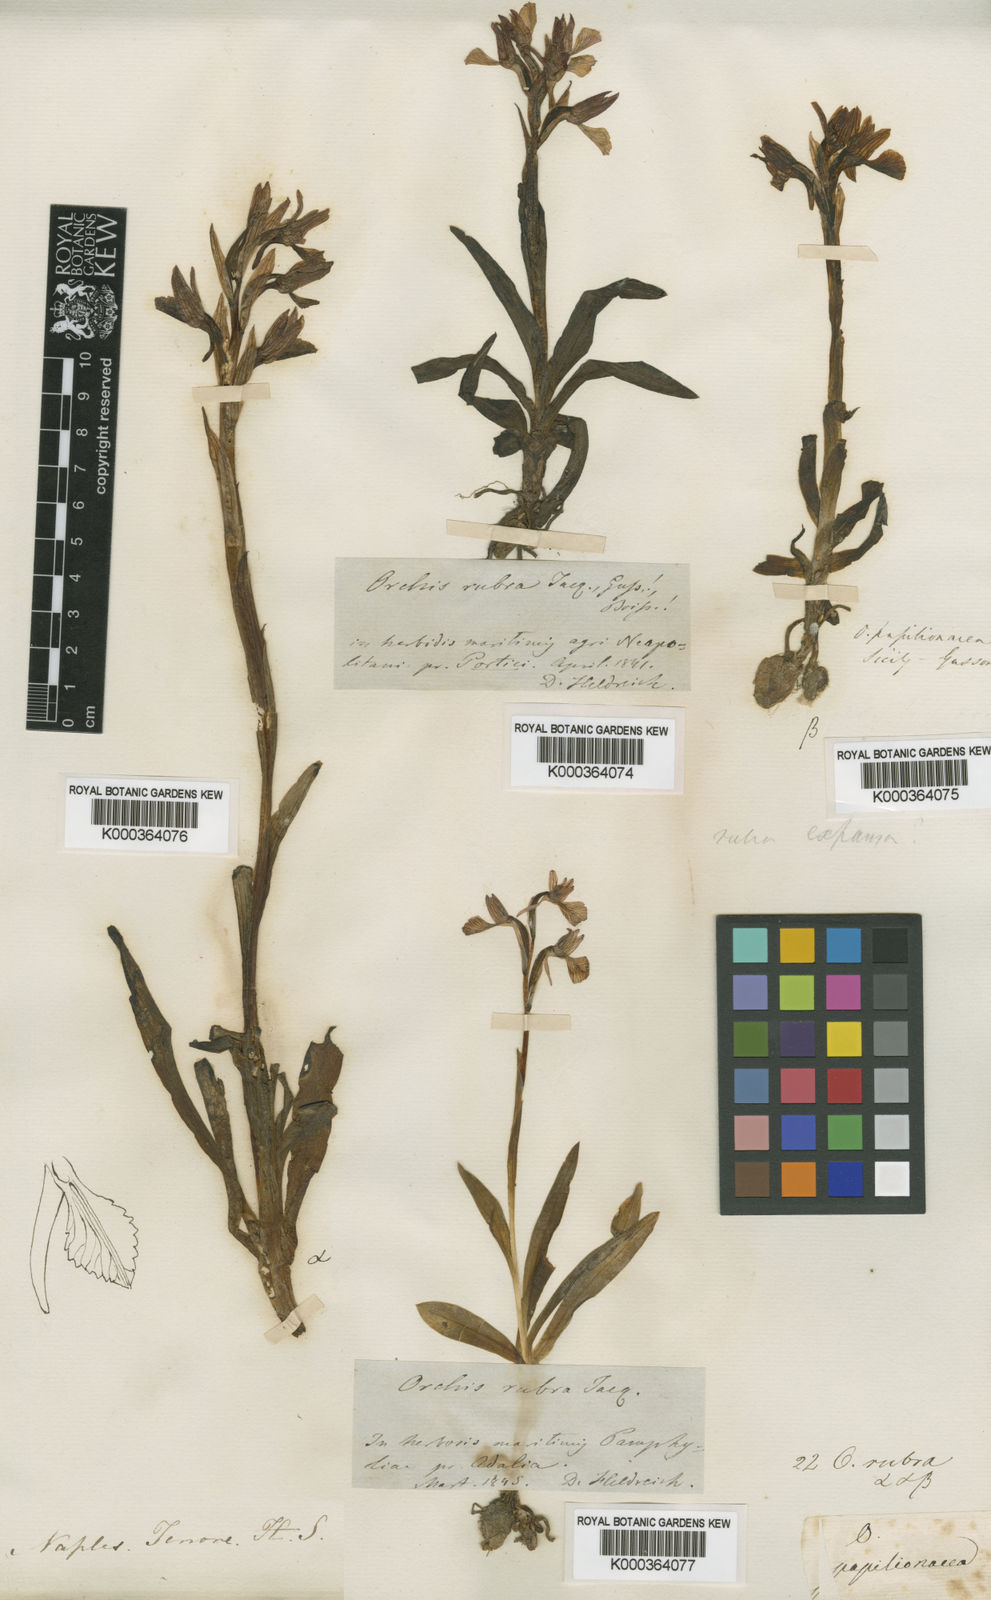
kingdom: Plantae
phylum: Tracheophyta
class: Liliopsida
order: Asparagales
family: Orchidaceae
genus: Anacamptis
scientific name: Anacamptis papilionacea
